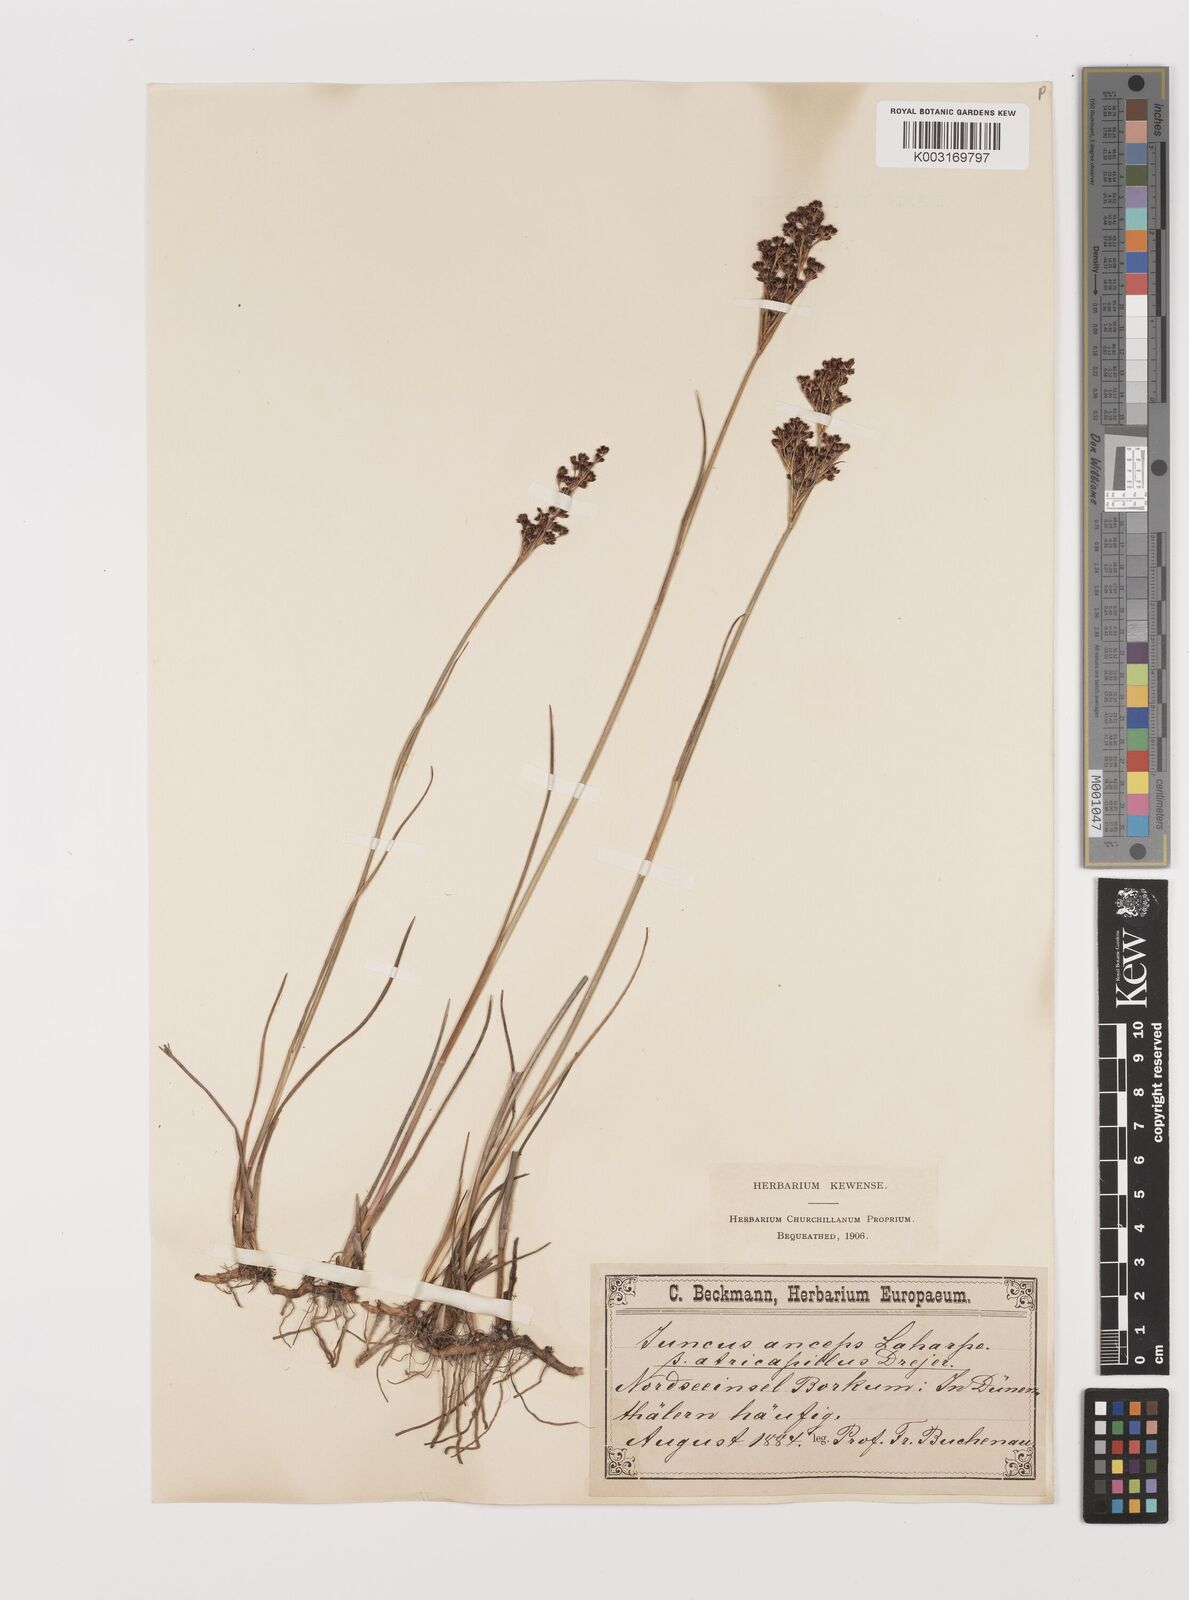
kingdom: Plantae
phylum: Tracheophyta
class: Liliopsida
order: Poales
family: Juncaceae
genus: Juncus
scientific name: Juncus anceps
